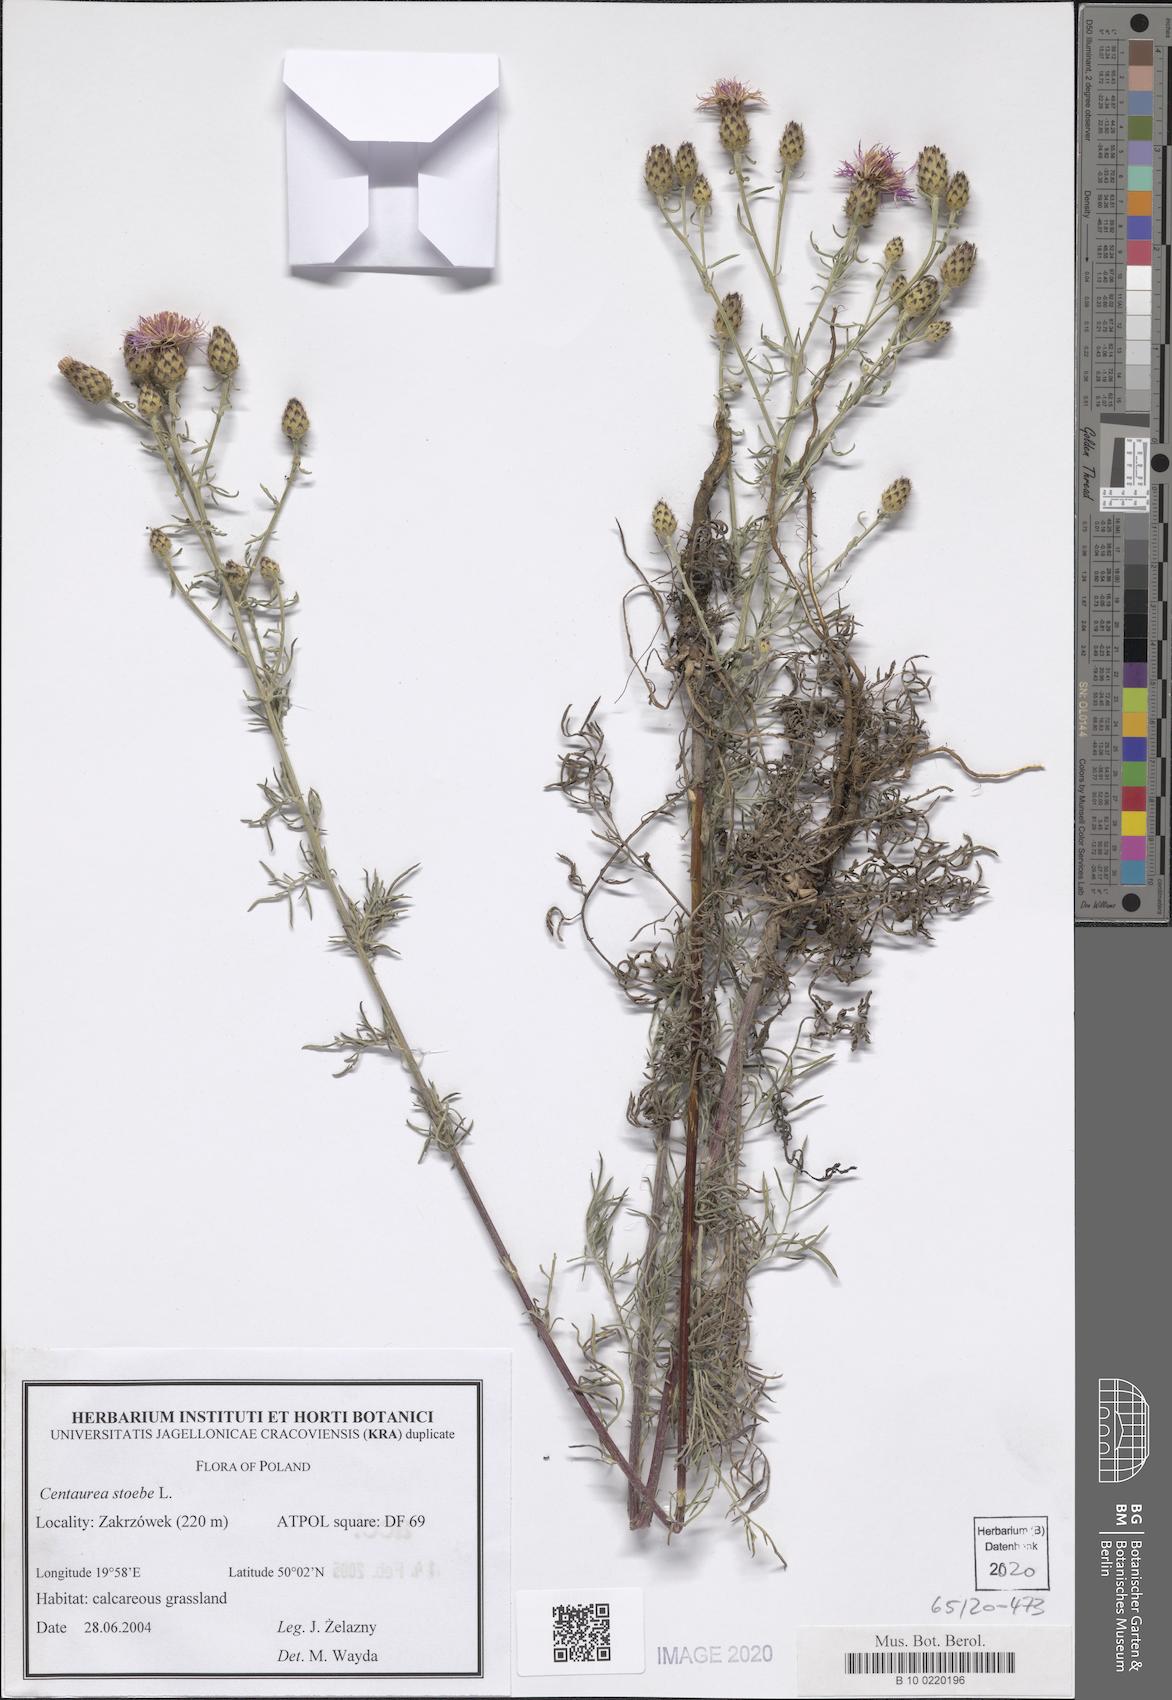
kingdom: Plantae
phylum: Tracheophyta
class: Magnoliopsida
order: Asterales
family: Asteraceae
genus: Centaurea
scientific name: Centaurea stoebe
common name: Spotted knapweed
